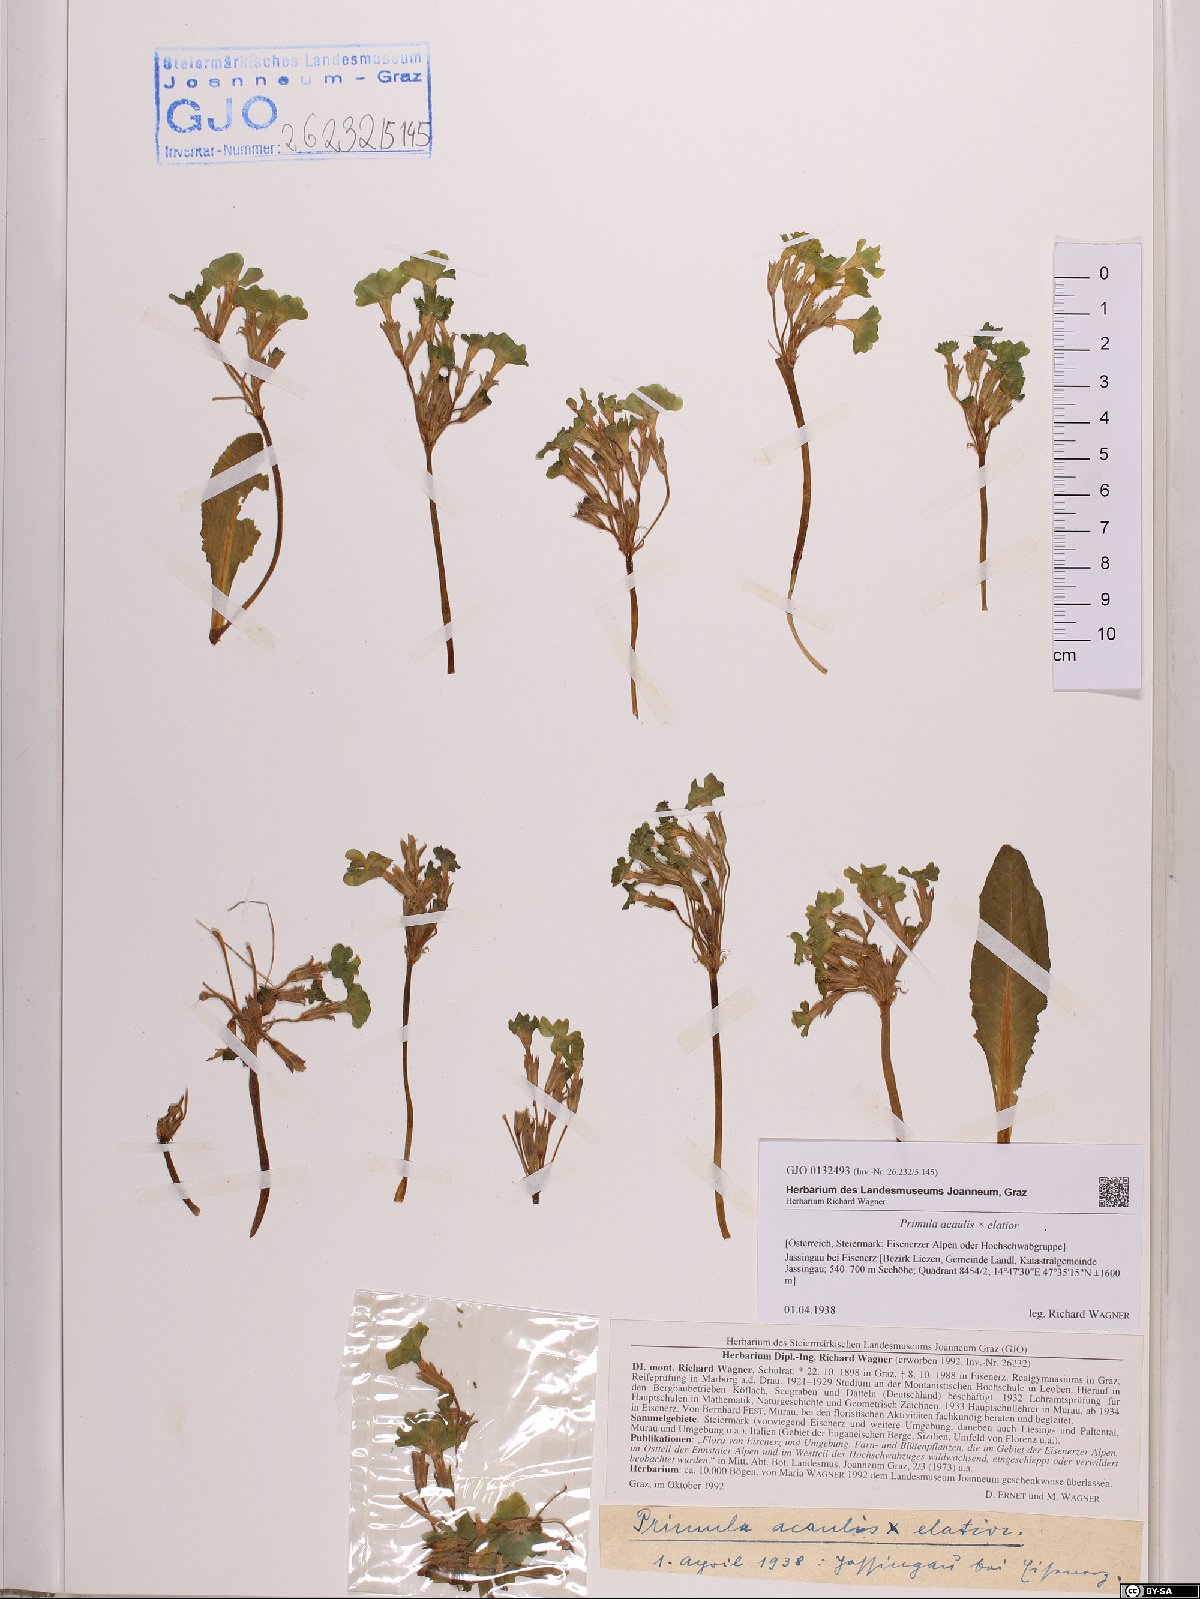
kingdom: Plantae
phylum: Tracheophyta
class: Magnoliopsida
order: Ericales
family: Primulaceae
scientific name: Primulaceae
